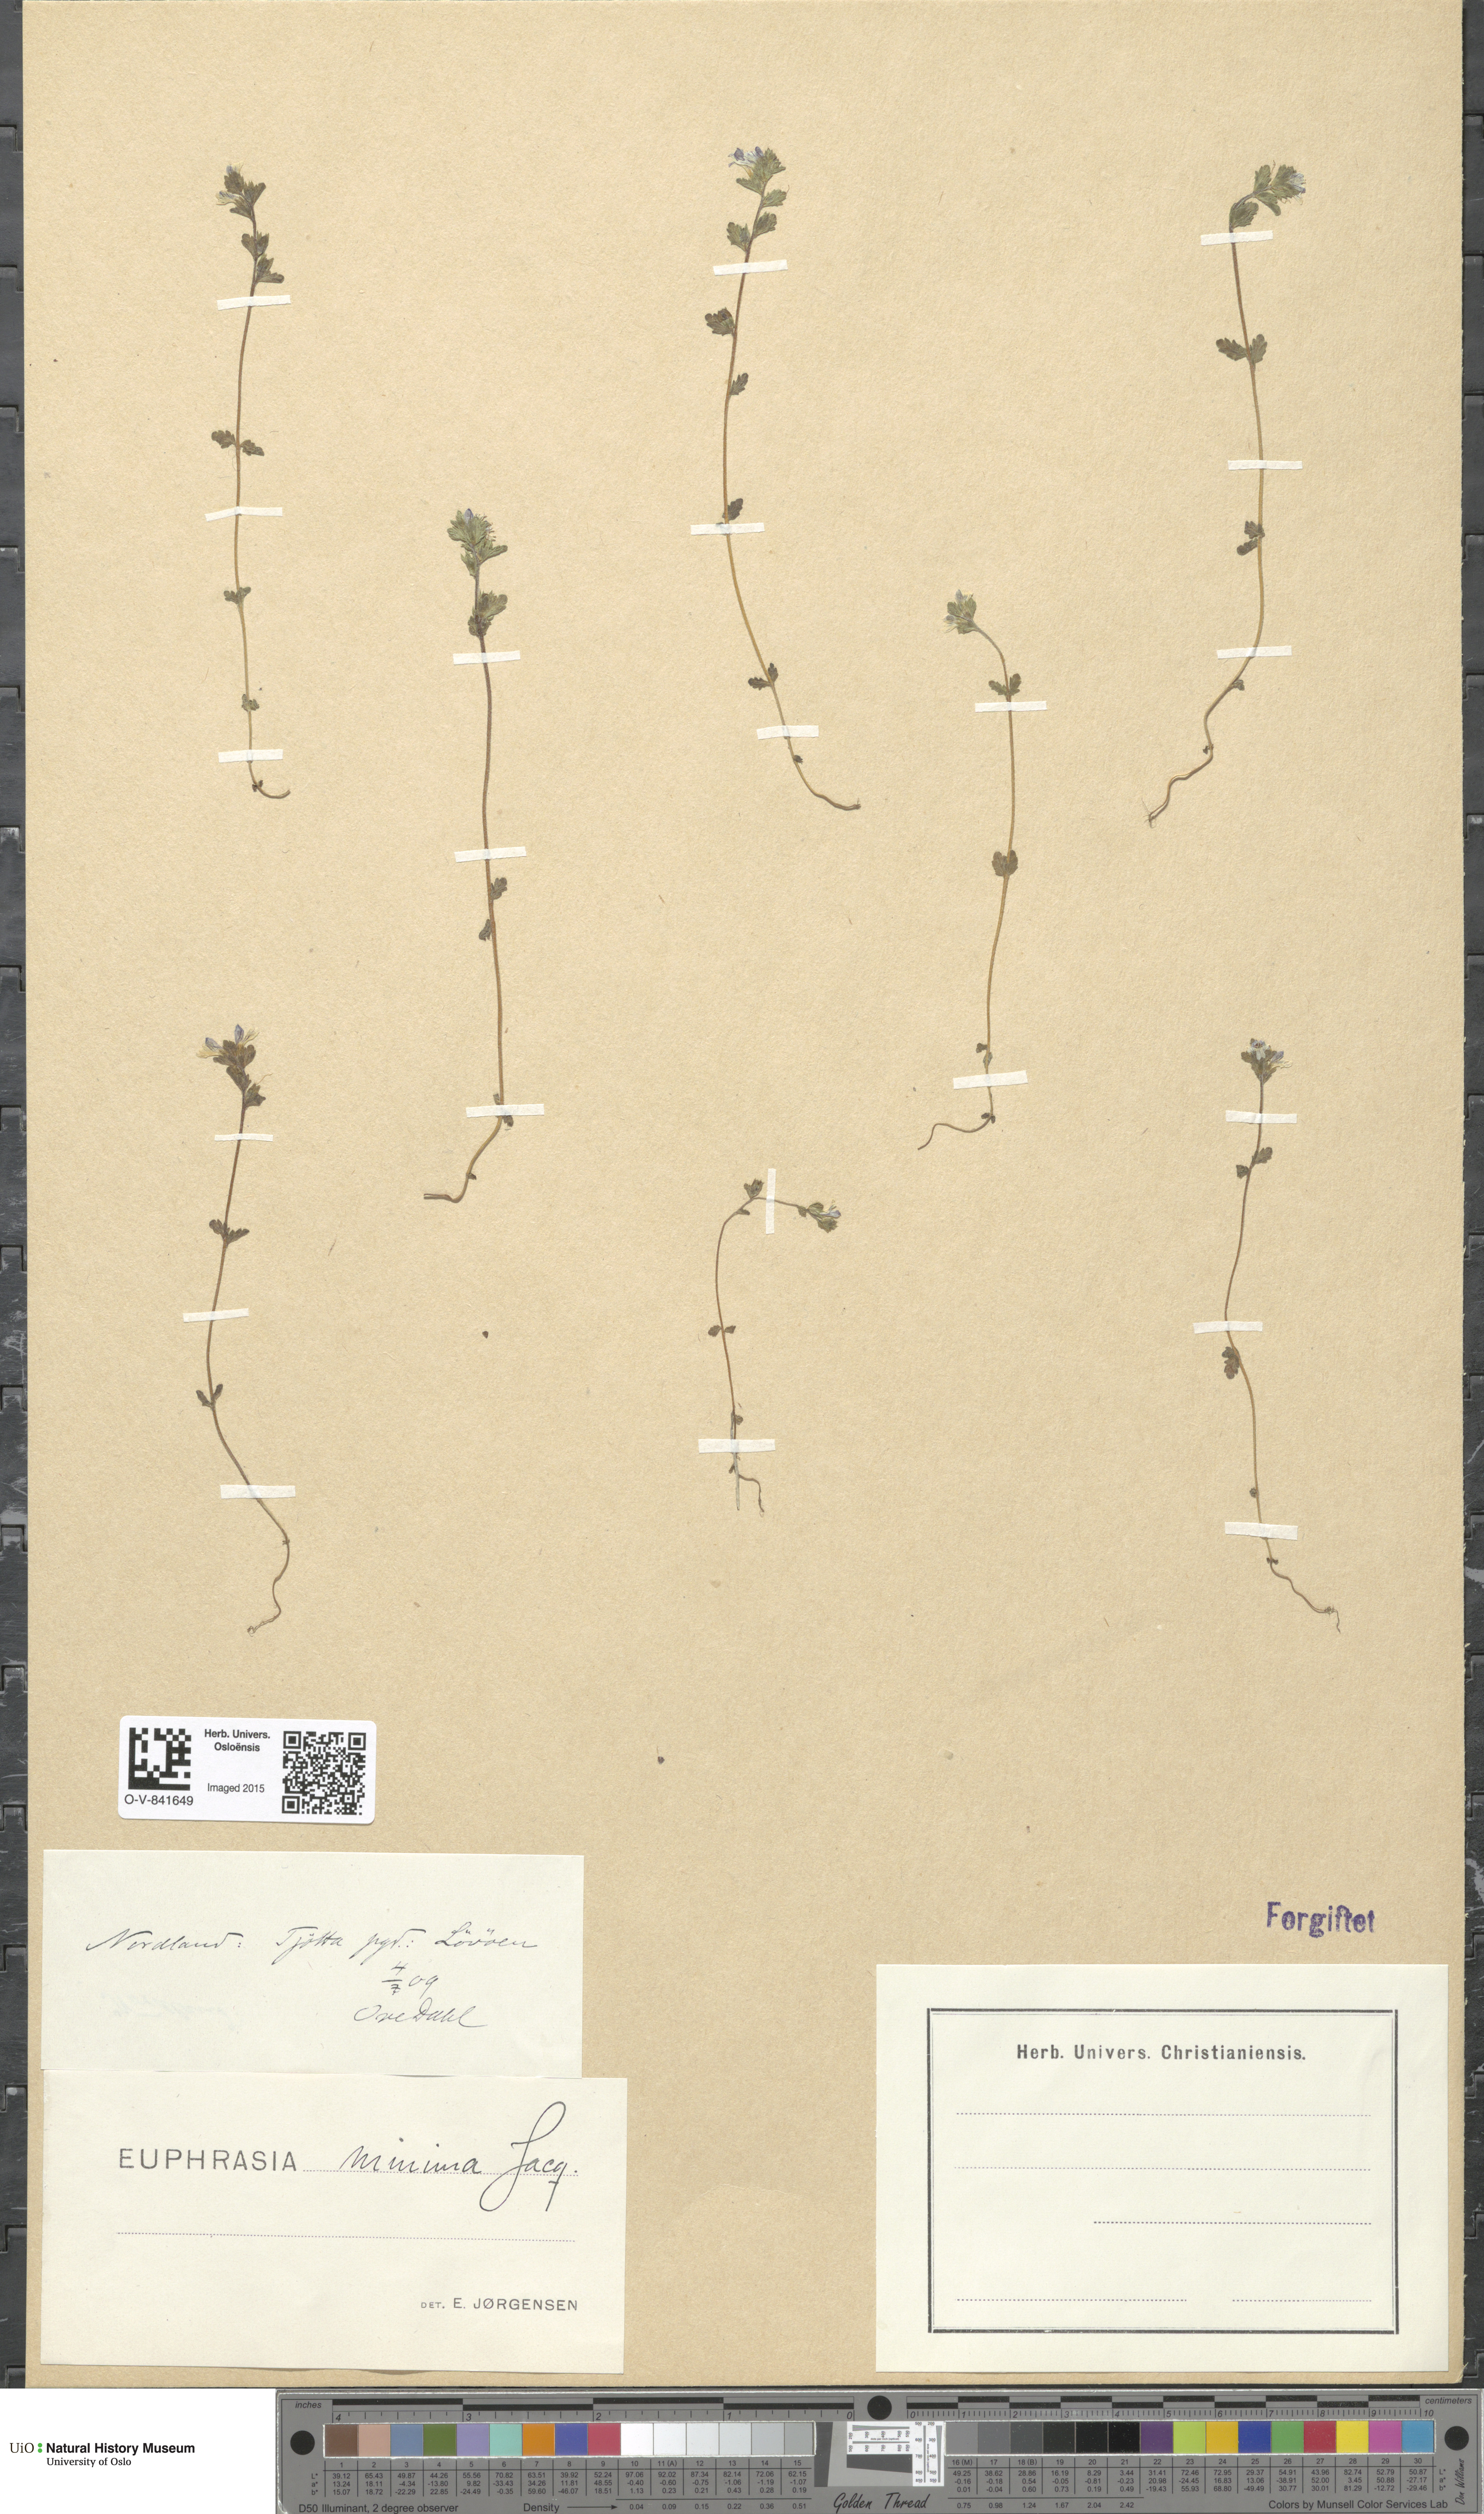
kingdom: Plantae
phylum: Tracheophyta
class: Magnoliopsida
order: Lamiales
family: Orobanchaceae
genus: Euphrasia
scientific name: Euphrasia wettsteinii
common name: Wettstein's eyebright
